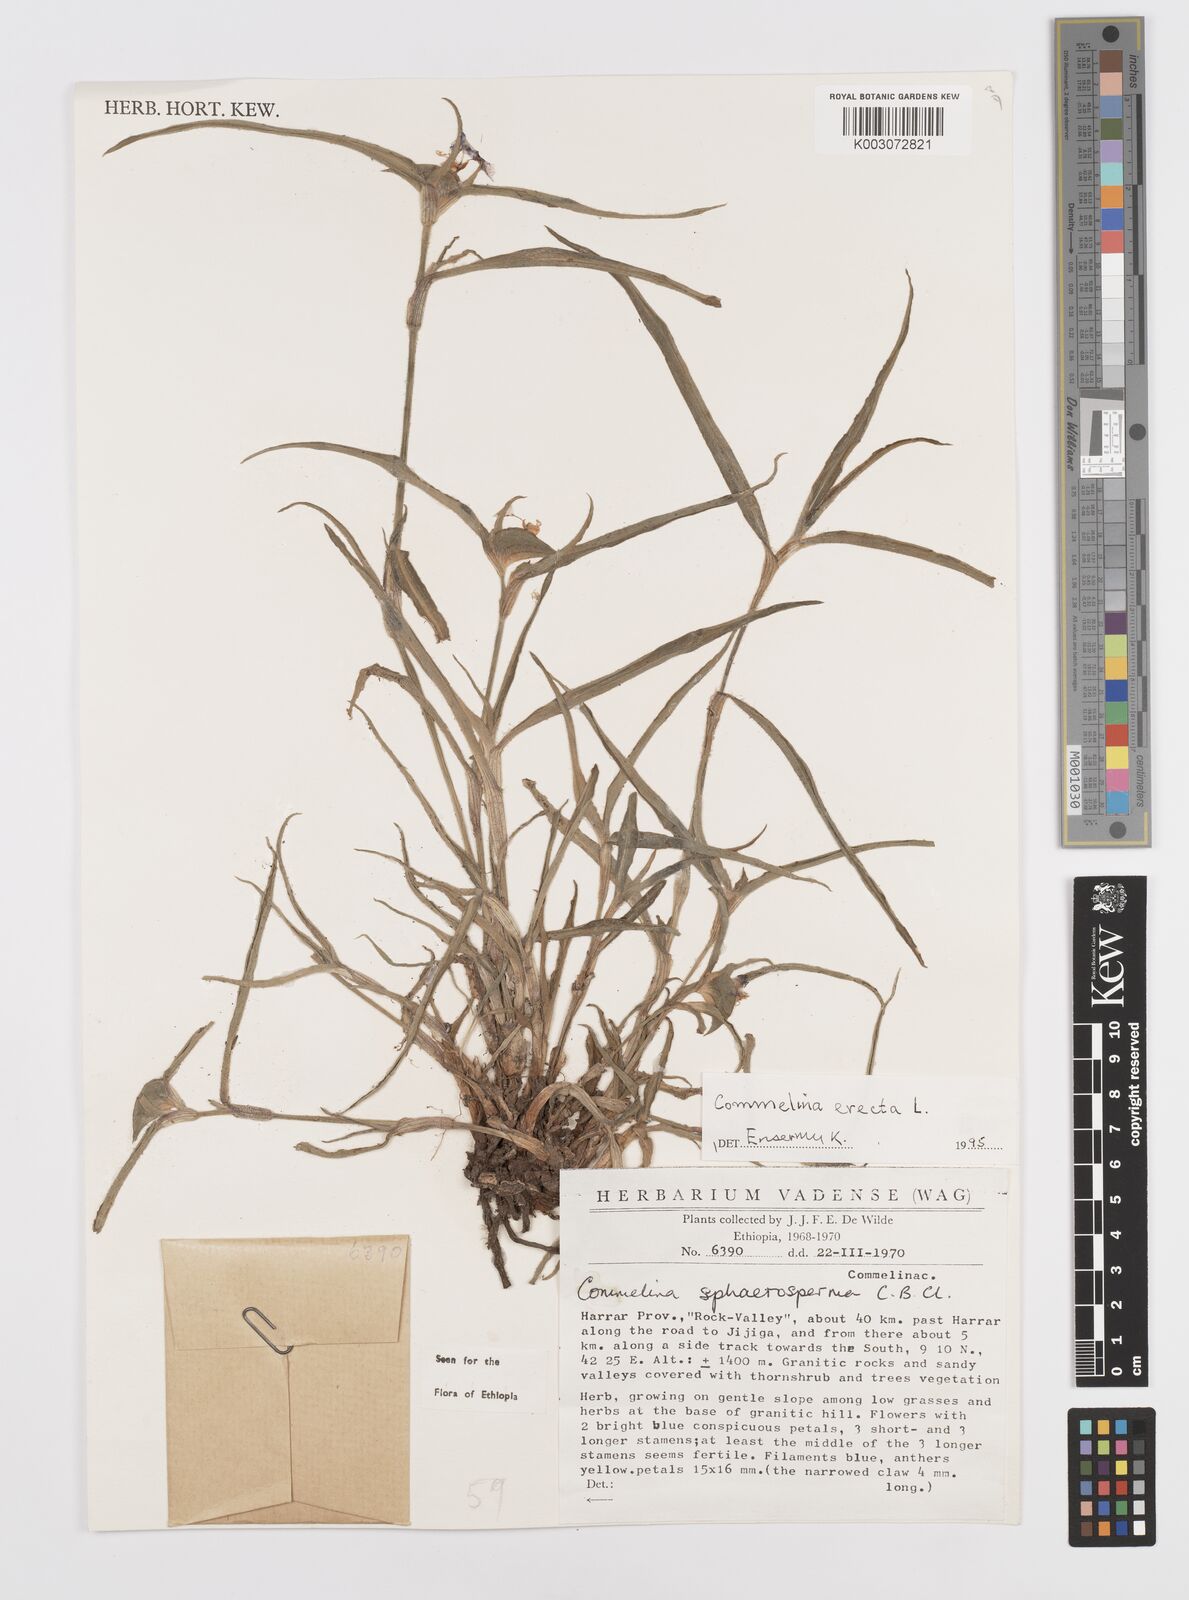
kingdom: Plantae
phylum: Tracheophyta
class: Liliopsida
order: Commelinales
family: Commelinaceae
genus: Commelina
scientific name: Commelina erecta
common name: Blousel blommetjie
